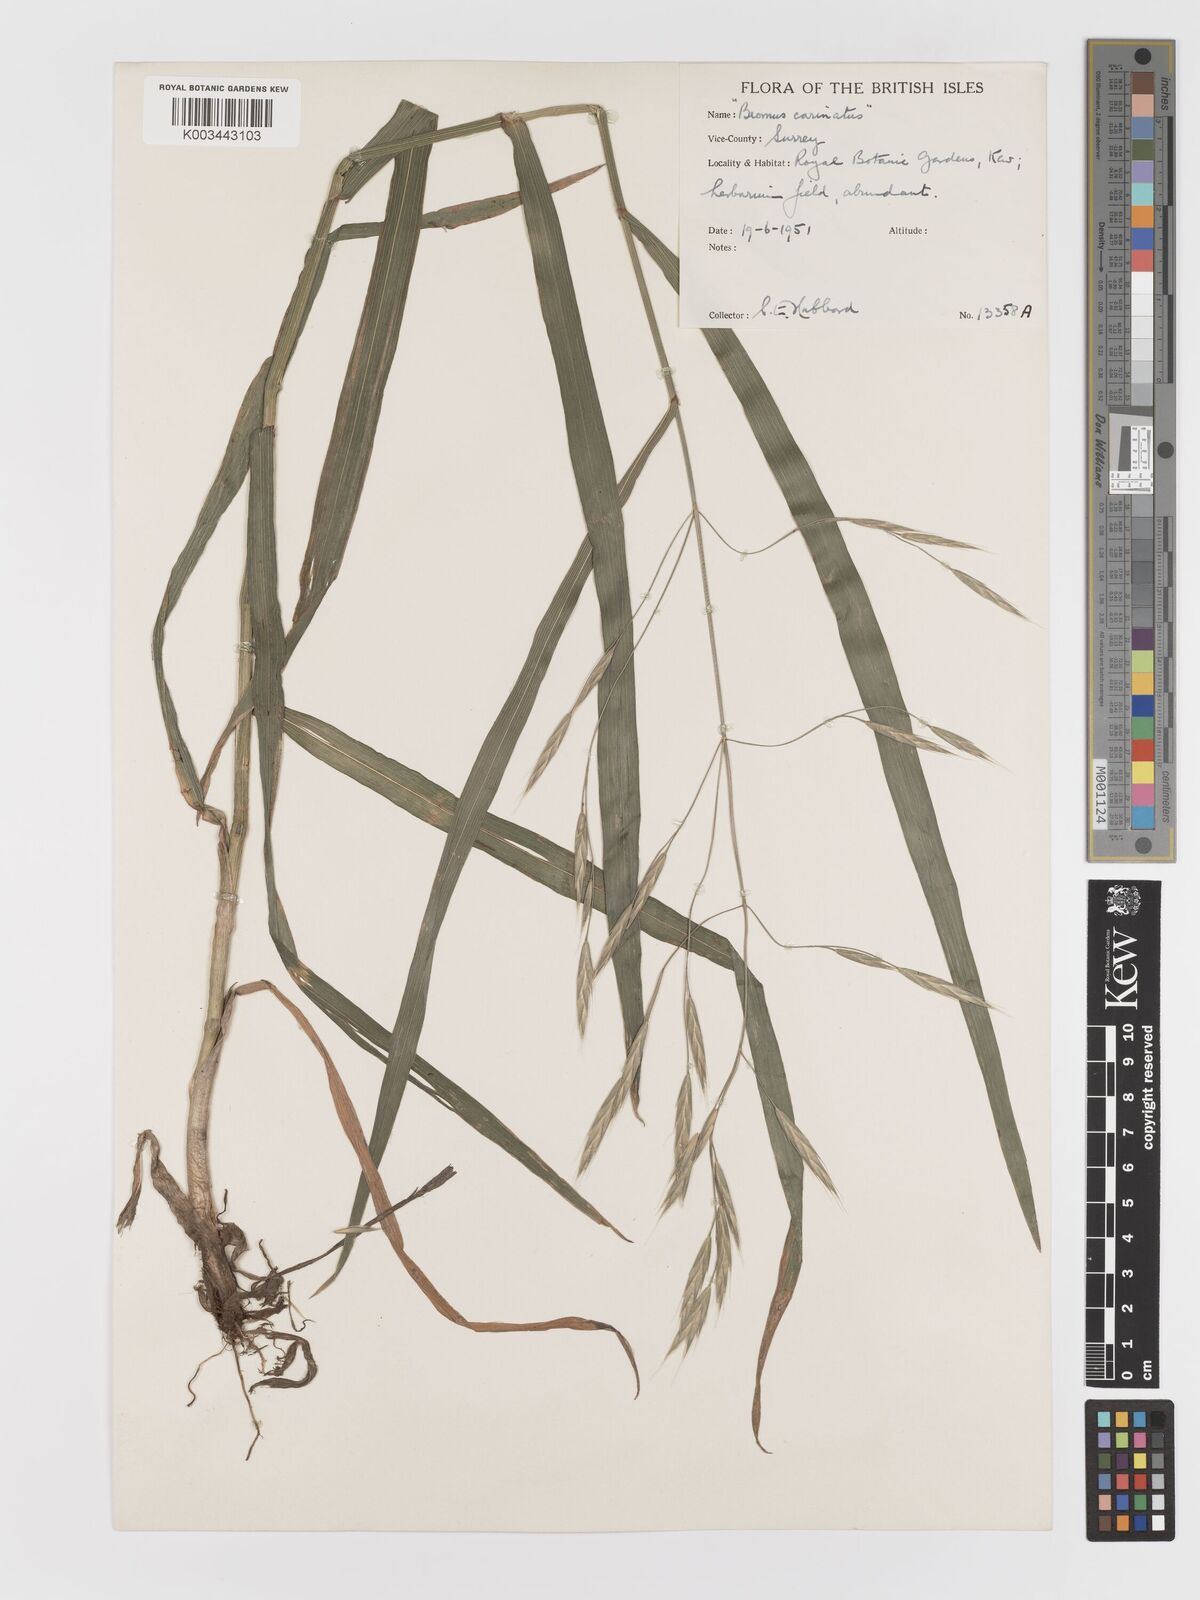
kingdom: Plantae
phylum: Tracheophyta
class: Liliopsida
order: Poales
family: Poaceae
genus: Bromus
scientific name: Bromus carinatus
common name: Mountain brome
